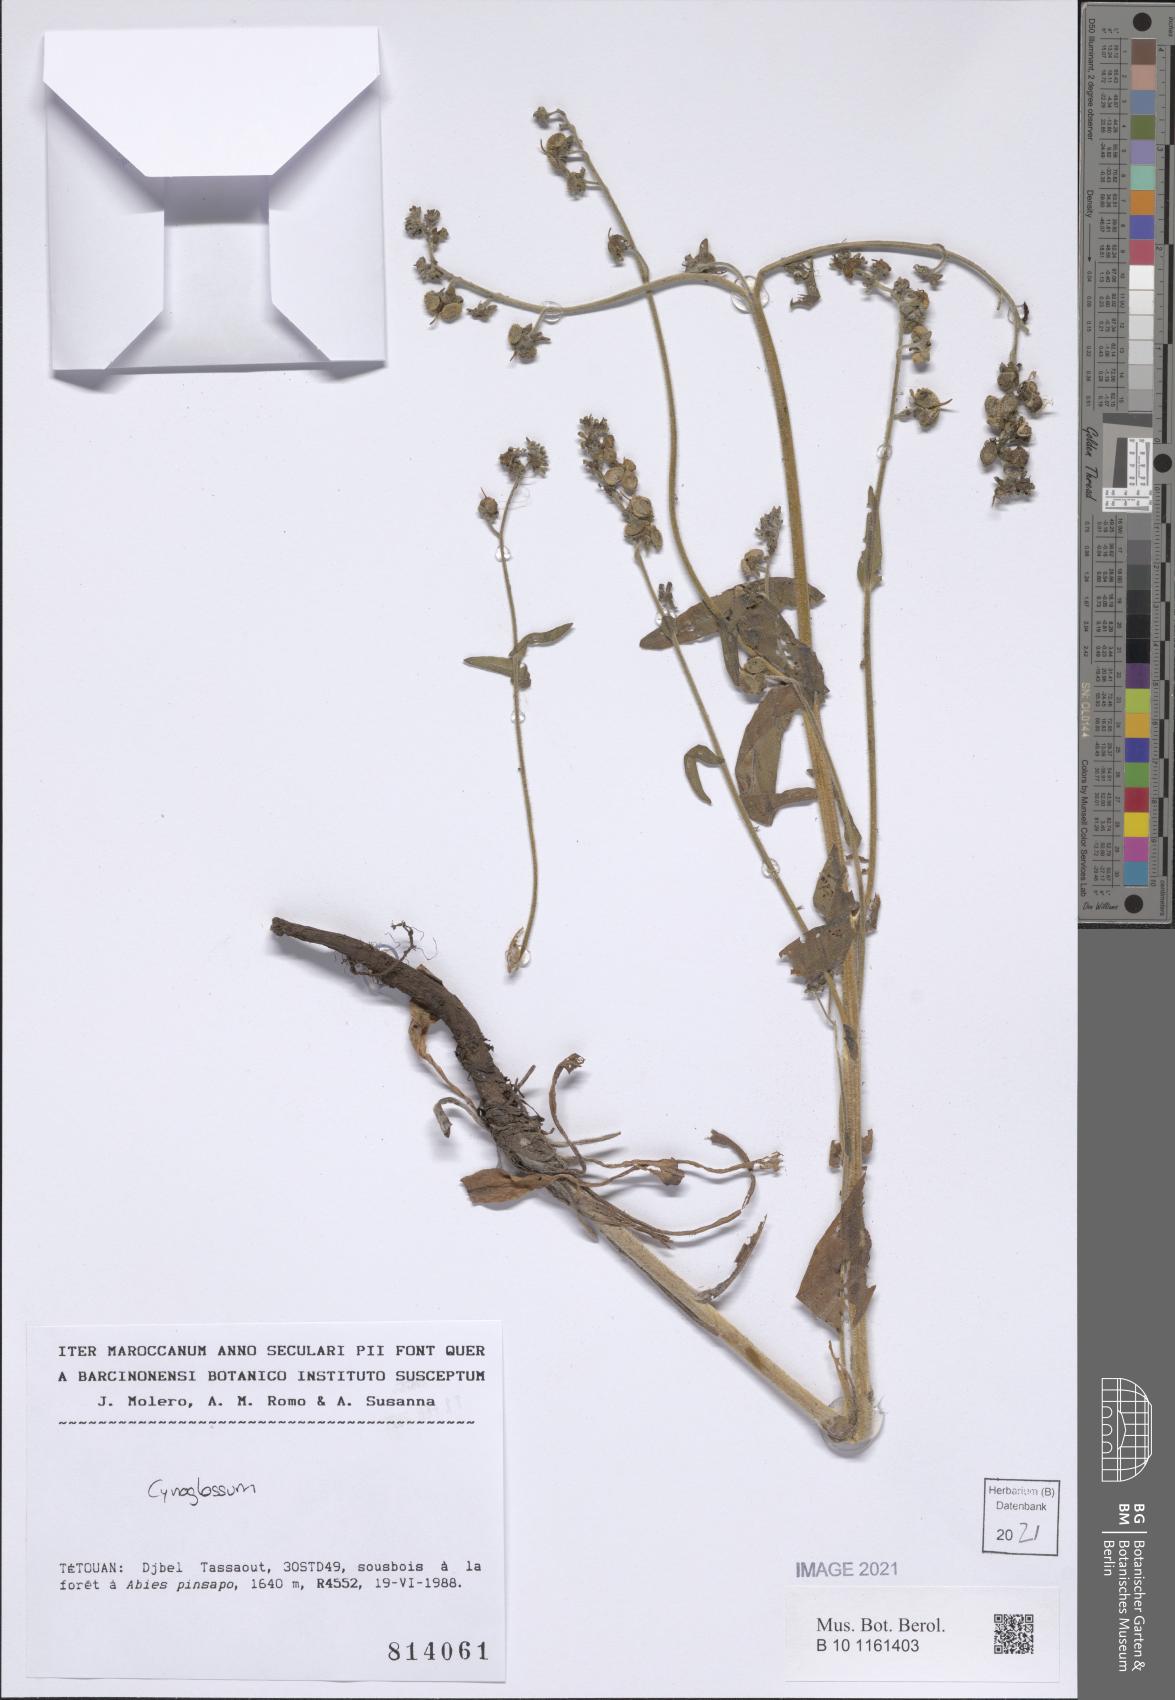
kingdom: Plantae
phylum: Tracheophyta
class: Magnoliopsida
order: Boraginales
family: Boraginaceae
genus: Cynoglossum
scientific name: Cynoglossum
